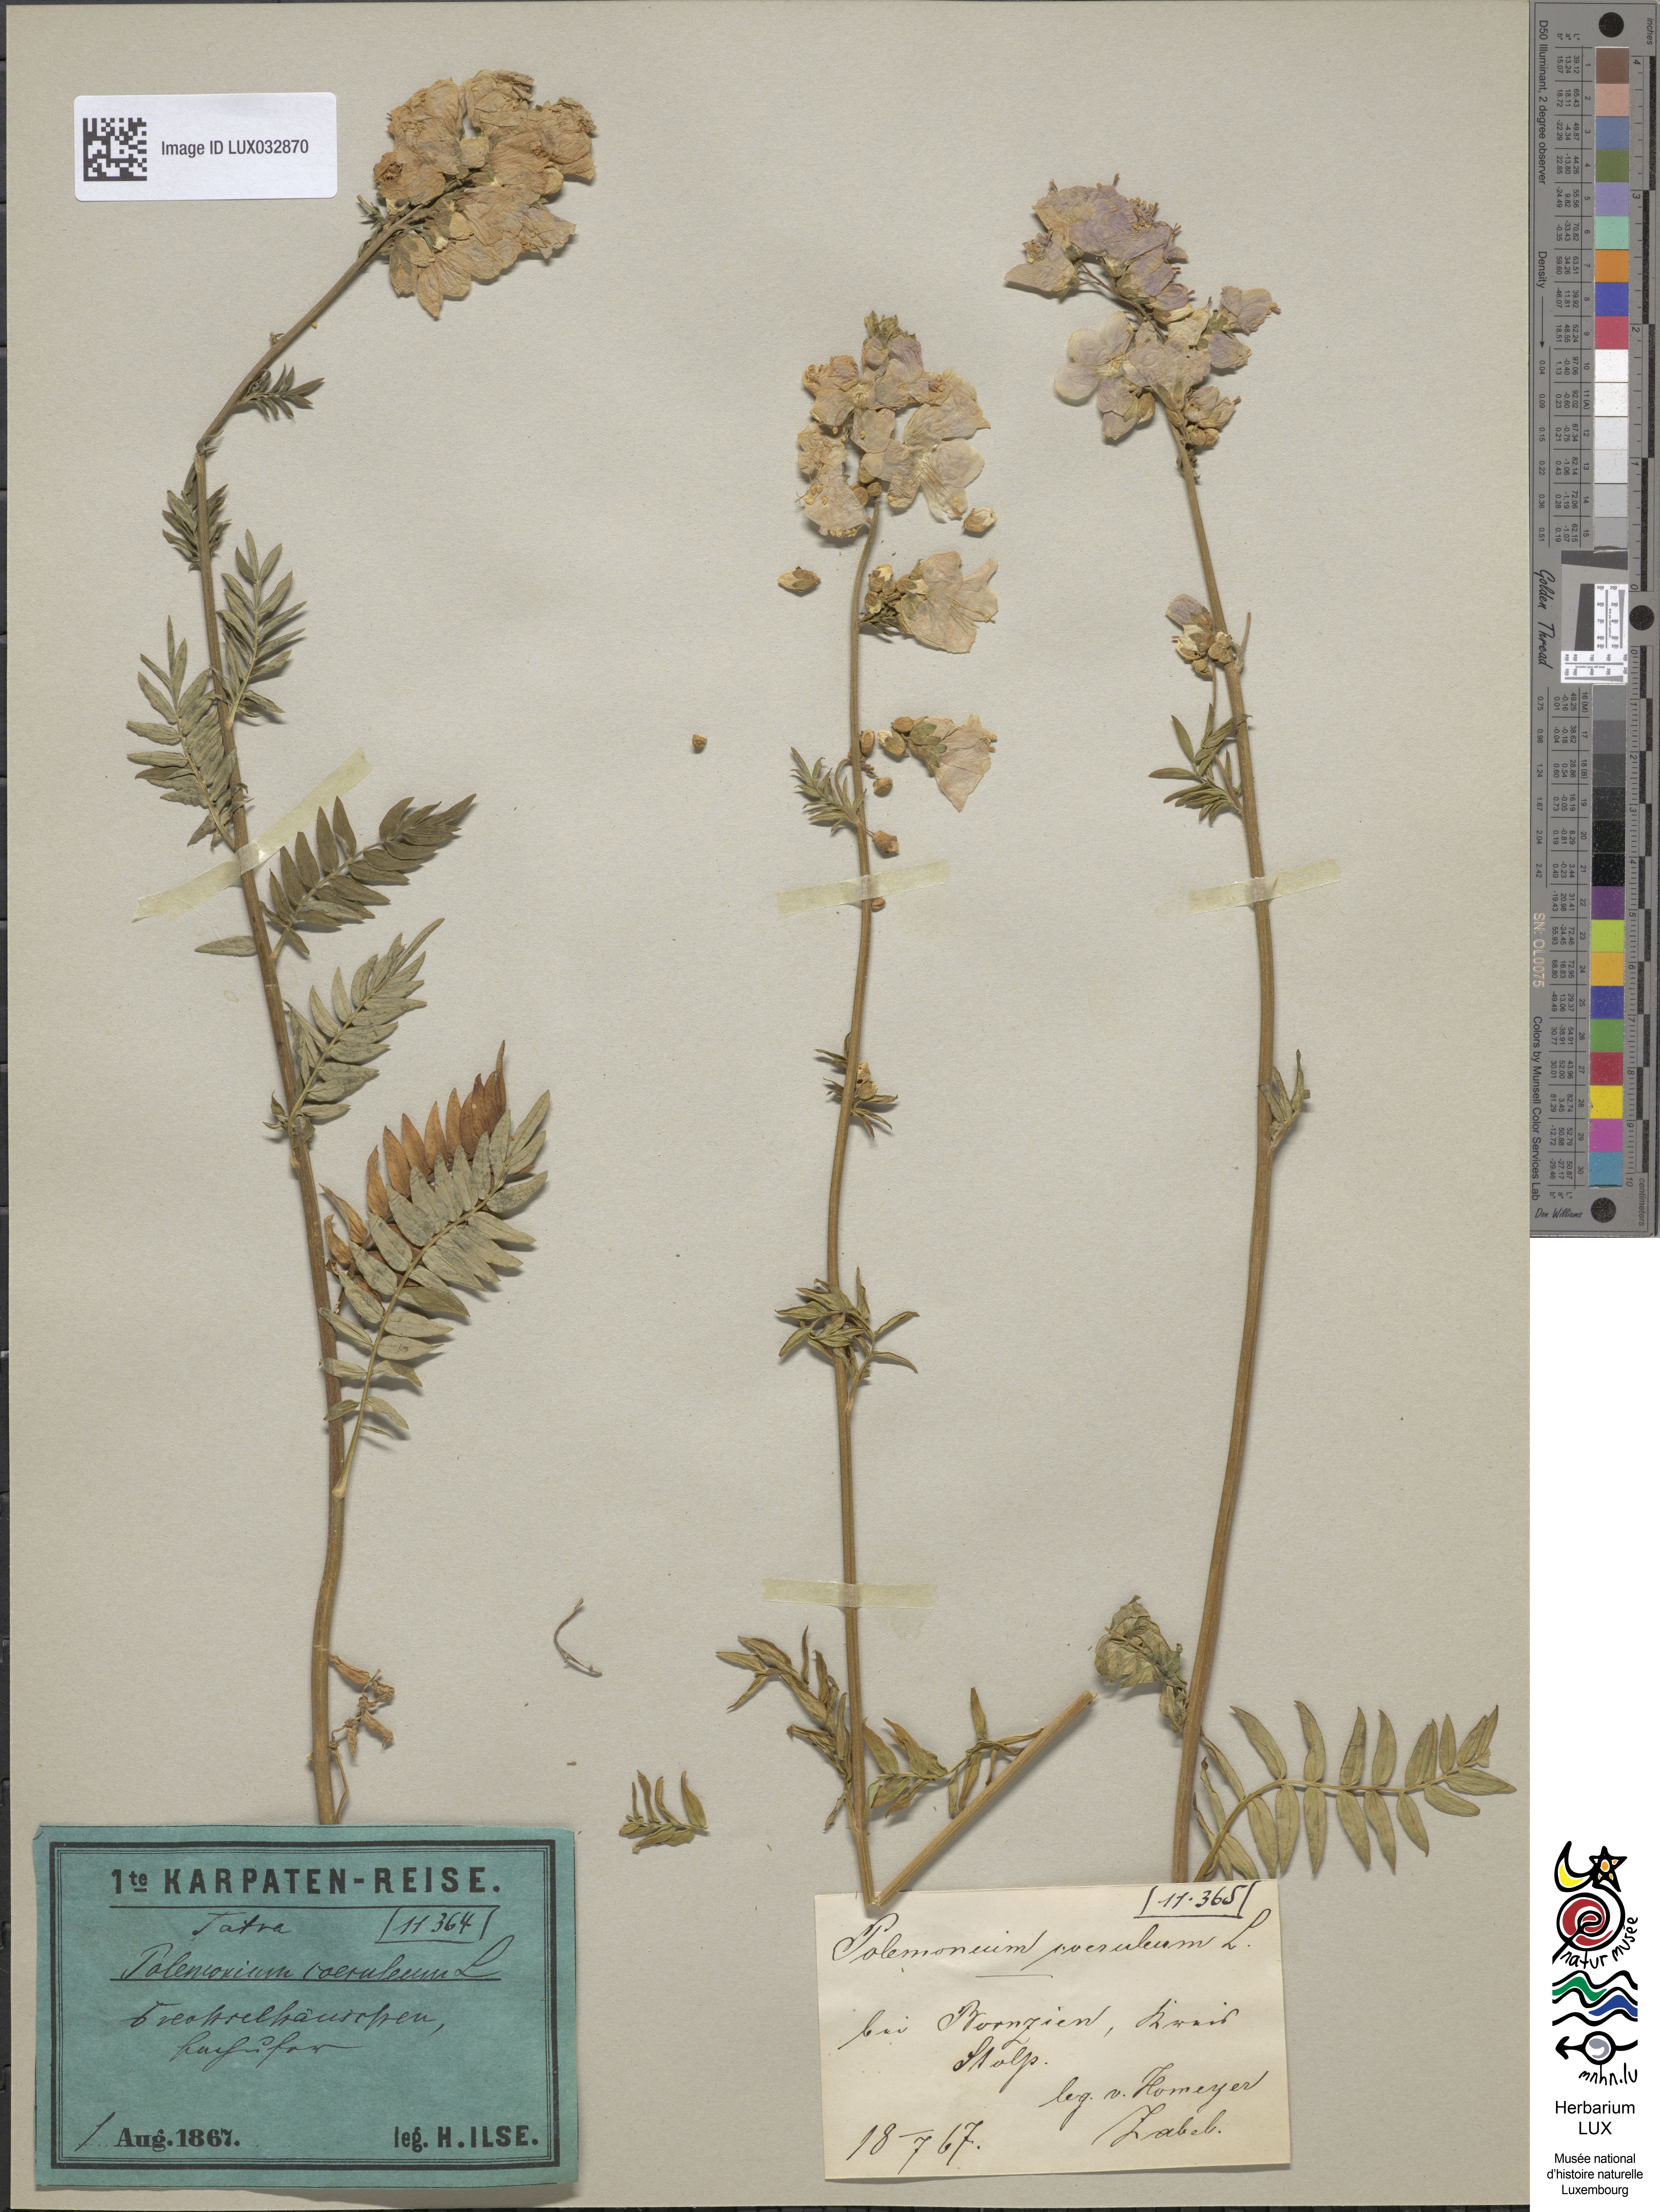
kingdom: Plantae
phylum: Tracheophyta
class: Magnoliopsida
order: Ericales
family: Polemoniaceae
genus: Polemonium
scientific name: Polemonium caeruleum
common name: Jacob's-ladder
